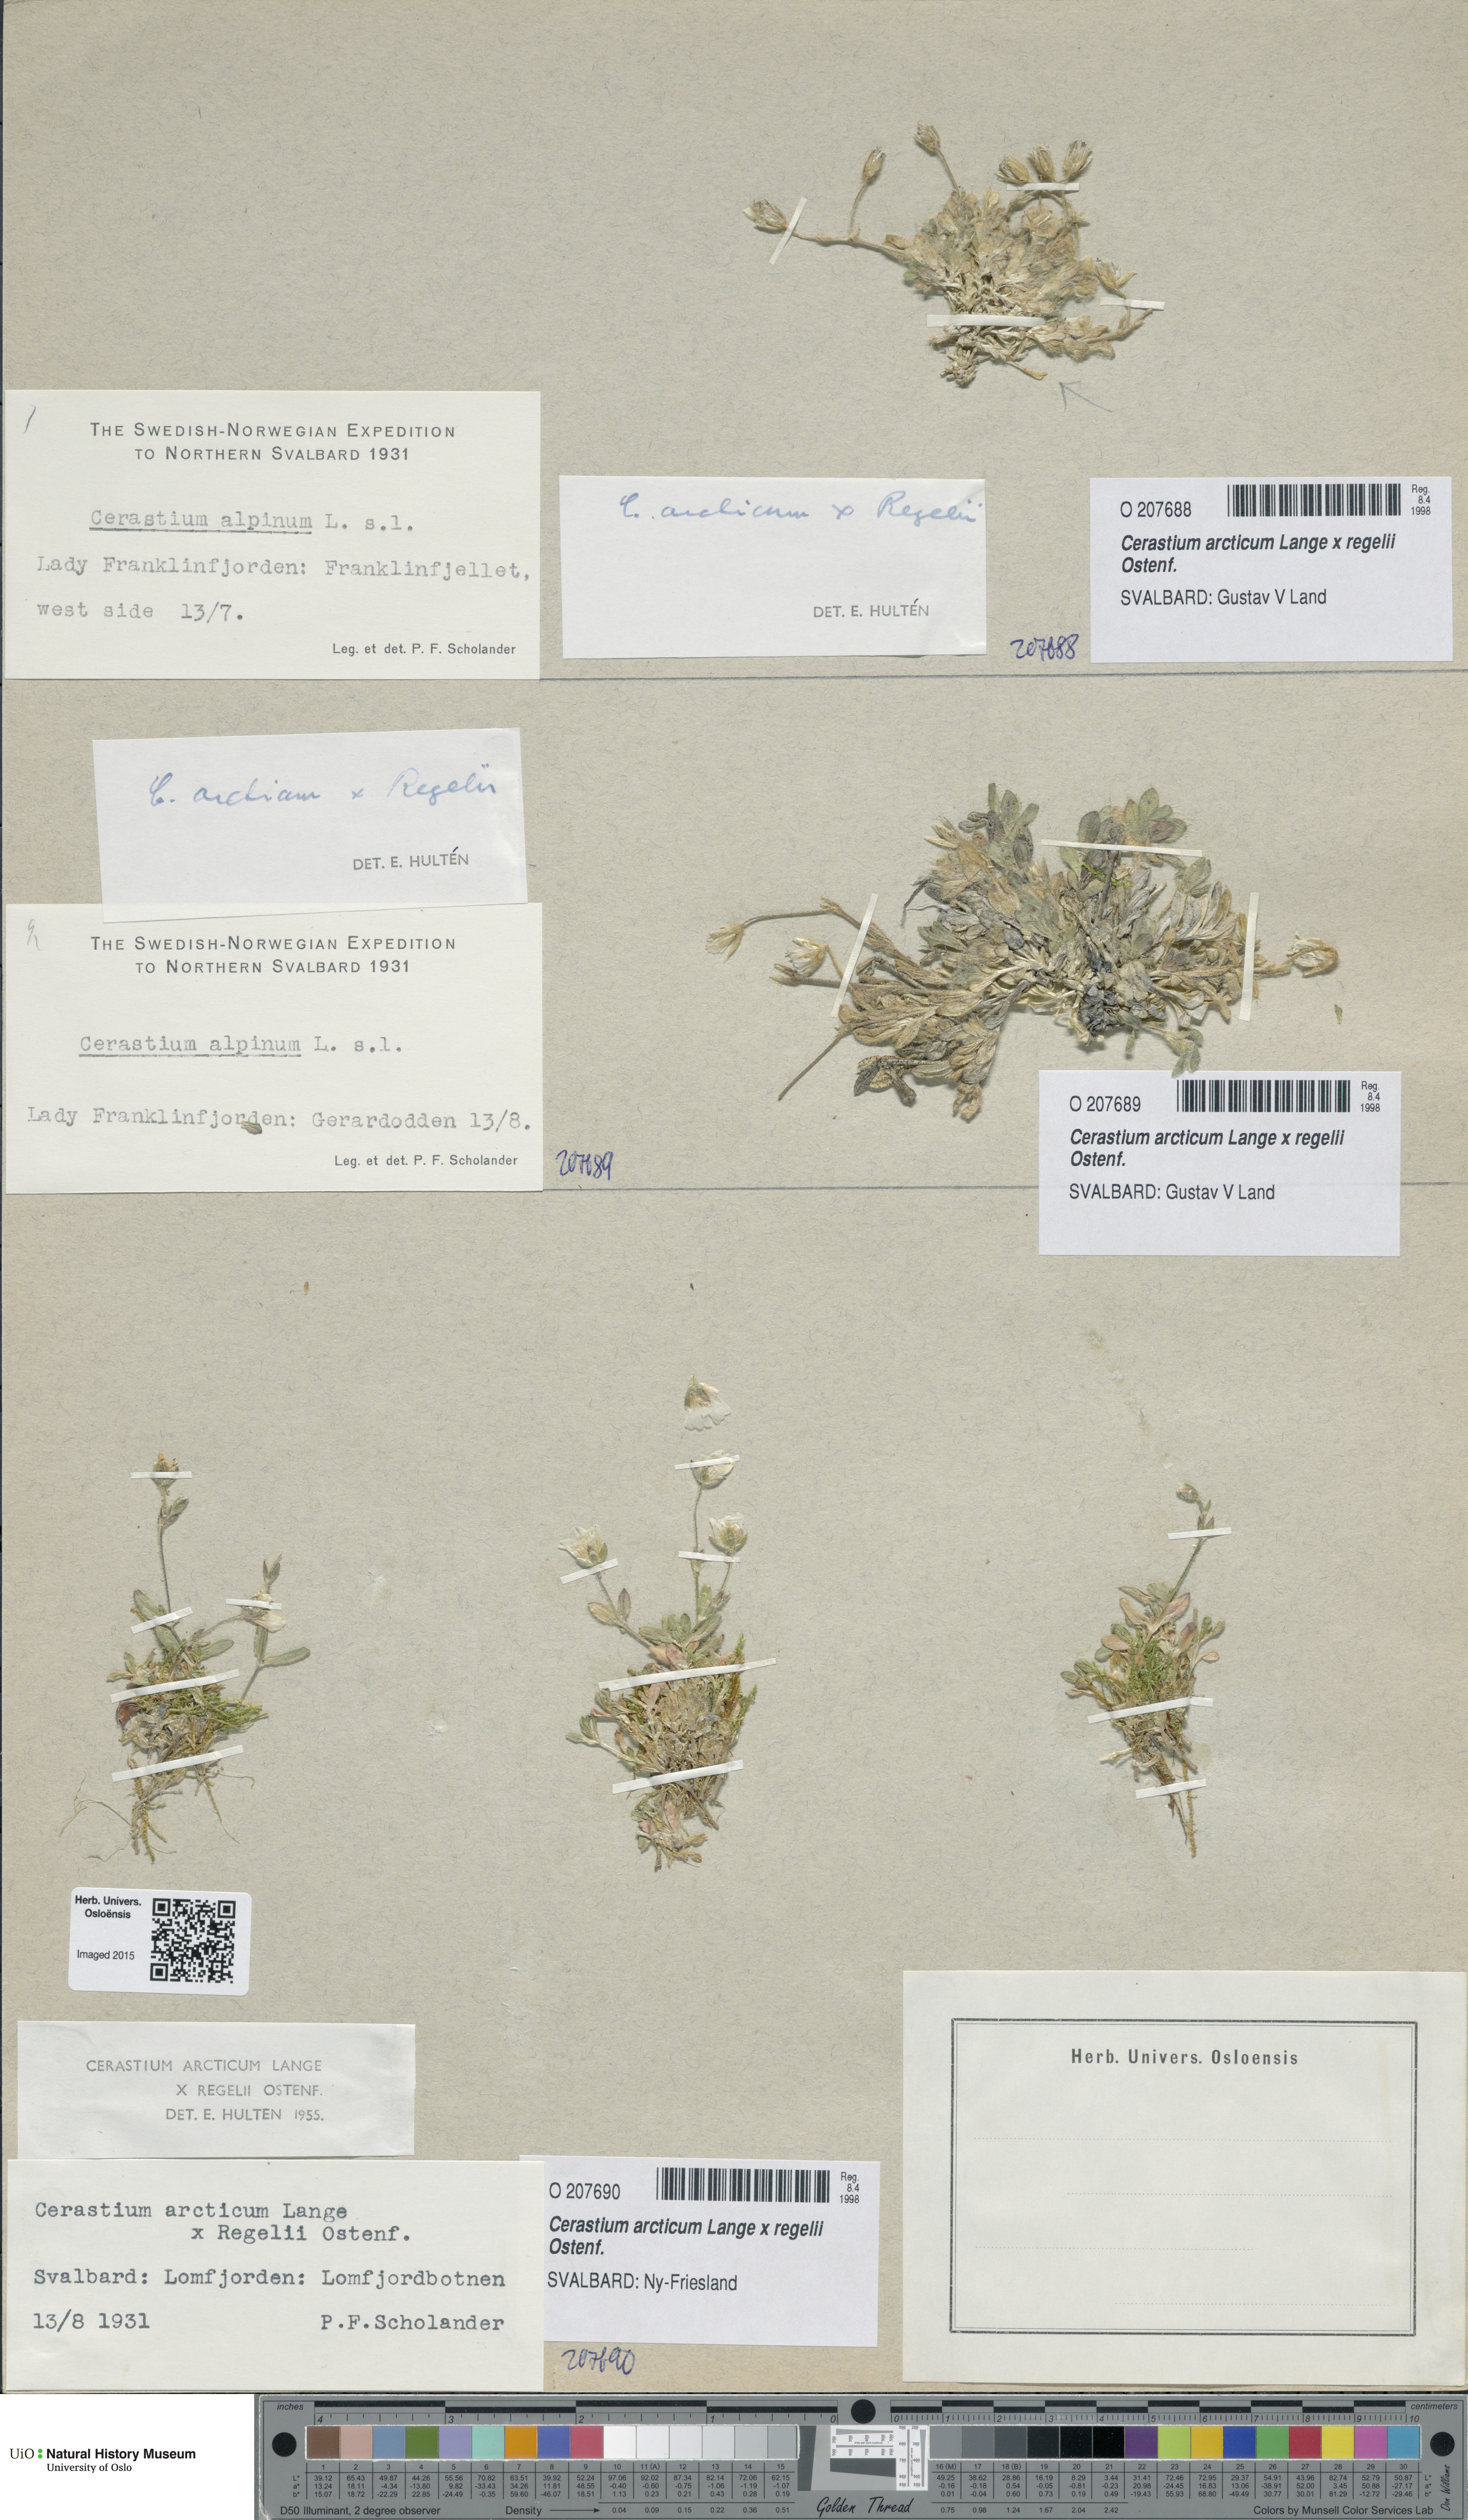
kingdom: Plantae
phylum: Tracheophyta
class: Magnoliopsida
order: Caryophyllales
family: Caryophyllaceae
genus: Cerastium
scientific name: Cerastium
